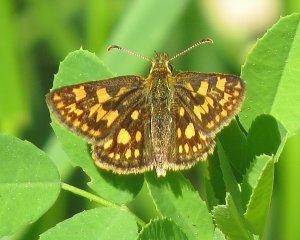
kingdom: Animalia
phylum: Arthropoda
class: Insecta
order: Lepidoptera
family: Hesperiidae
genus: Carterocephalus
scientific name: Carterocephalus palaemon
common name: Chequered Skipper
